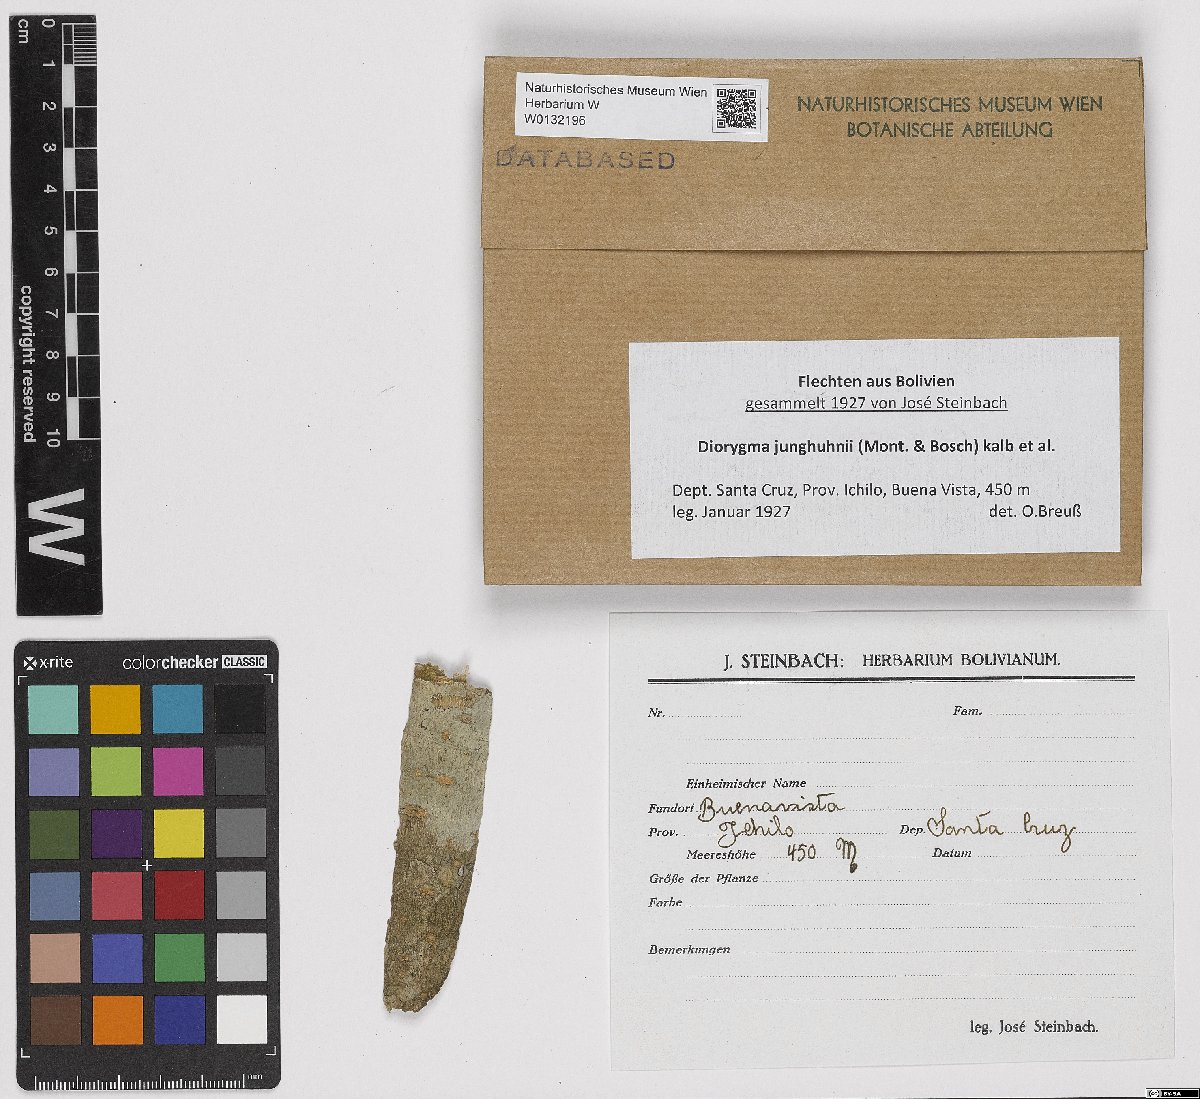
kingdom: Fungi
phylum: Ascomycota
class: Lecanoromycetes
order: Ostropales
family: Graphidaceae
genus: Diorygma
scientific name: Diorygma junghuhnii
